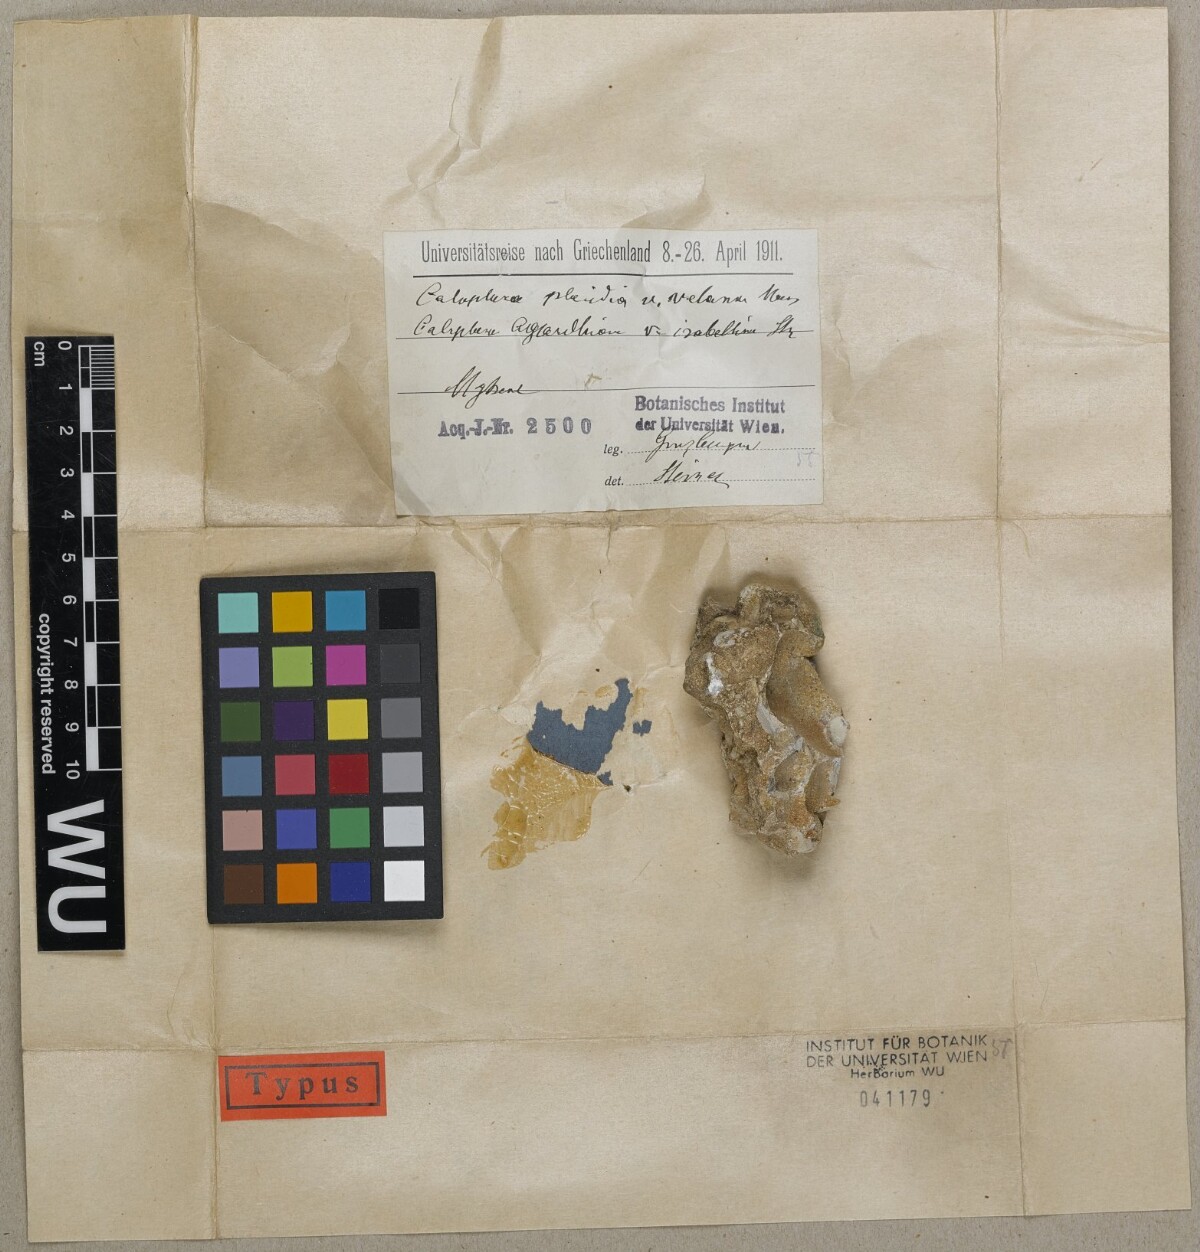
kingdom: Fungi
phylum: Ascomycota
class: Lecanoromycetes
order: Teloschistales
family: Teloschistaceae
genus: Caloplaca
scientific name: Caloplaca
